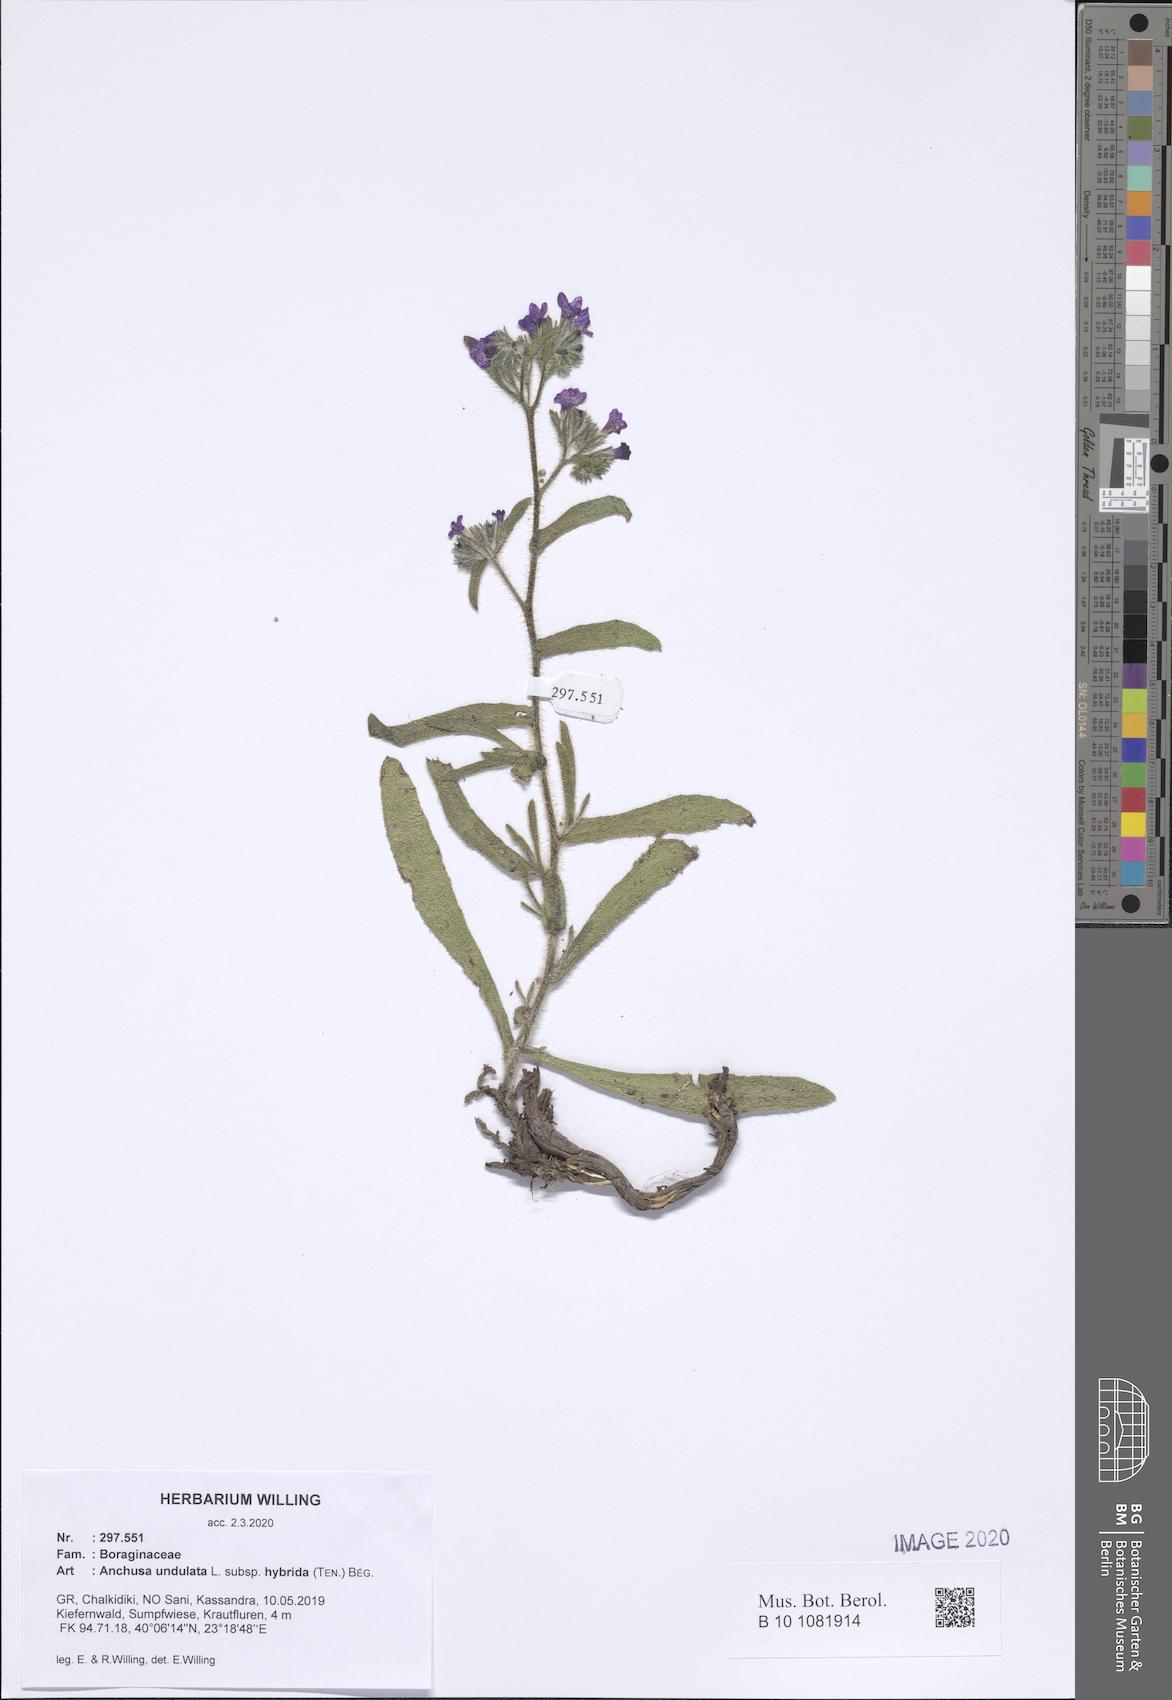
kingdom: Plantae
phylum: Tracheophyta
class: Magnoliopsida
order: Boraginales
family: Boraginaceae
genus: Anchusa
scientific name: Anchusa undulata
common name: Undulate alkanet
